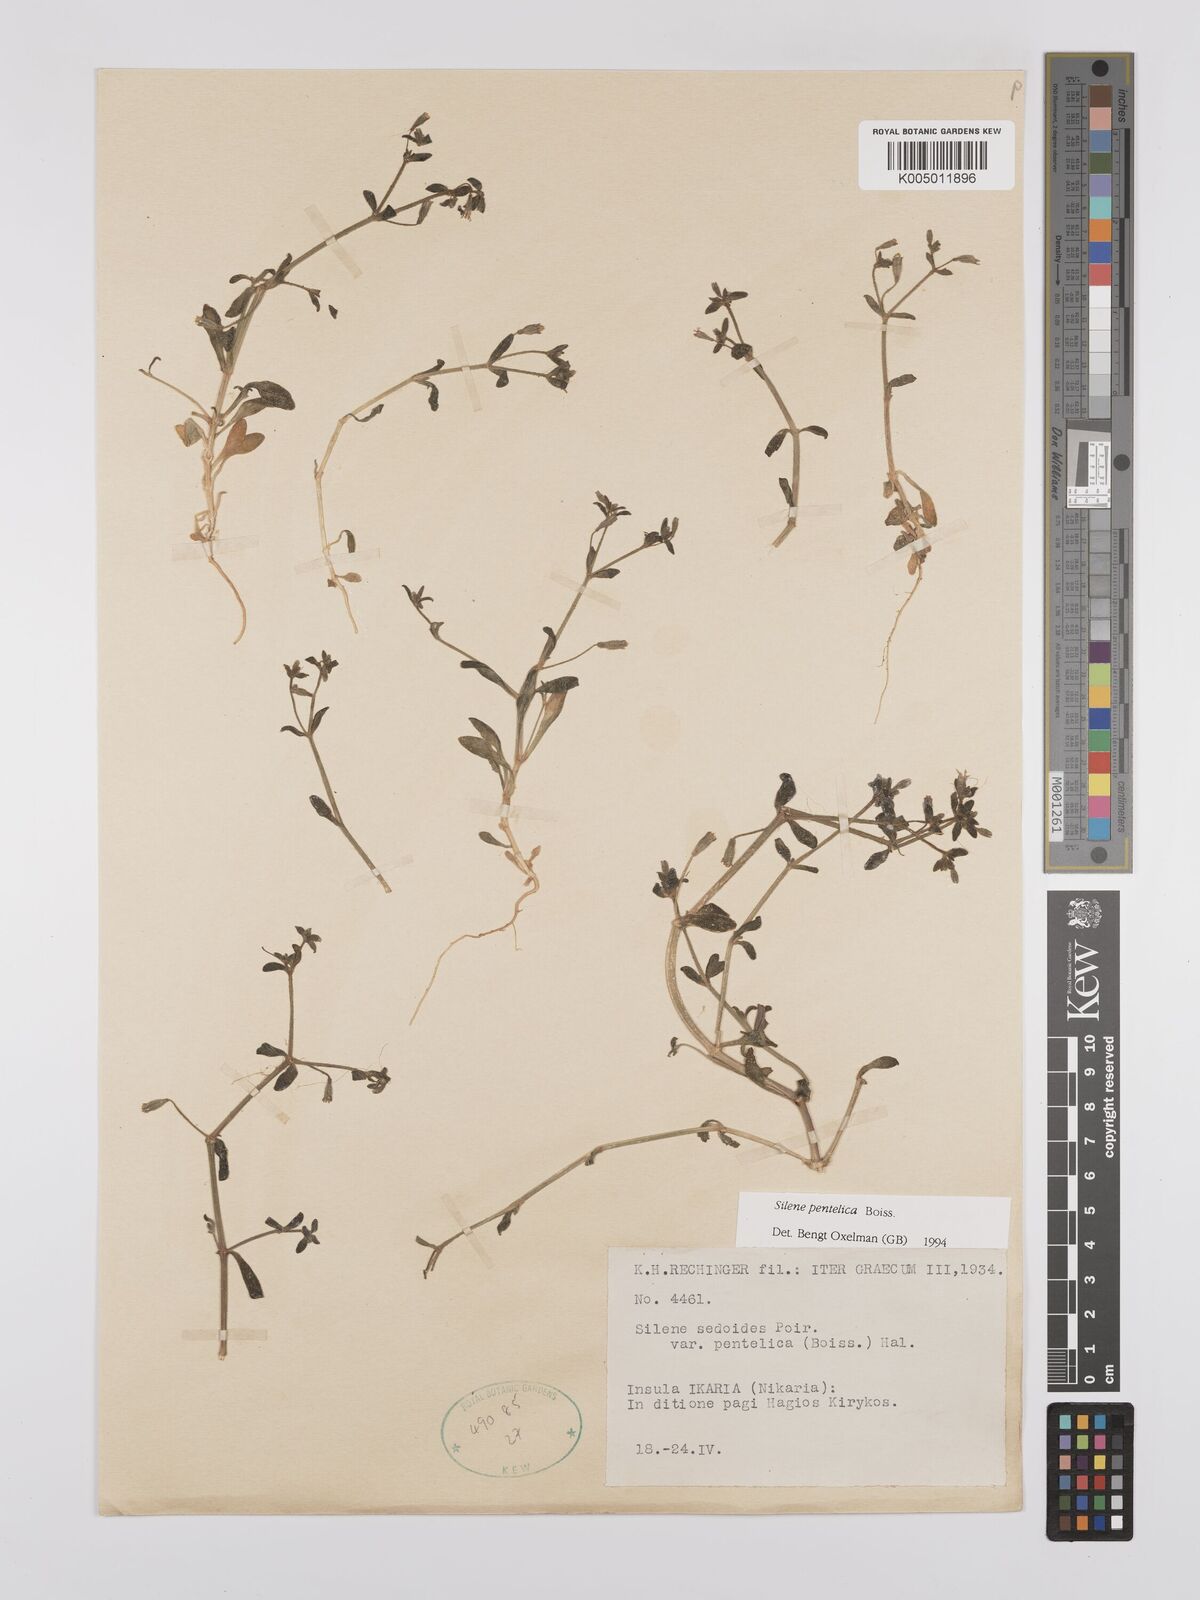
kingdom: Plantae
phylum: Tracheophyta
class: Magnoliopsida
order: Caryophyllales
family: Caryophyllaceae
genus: Silene
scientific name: Silene pentelica
